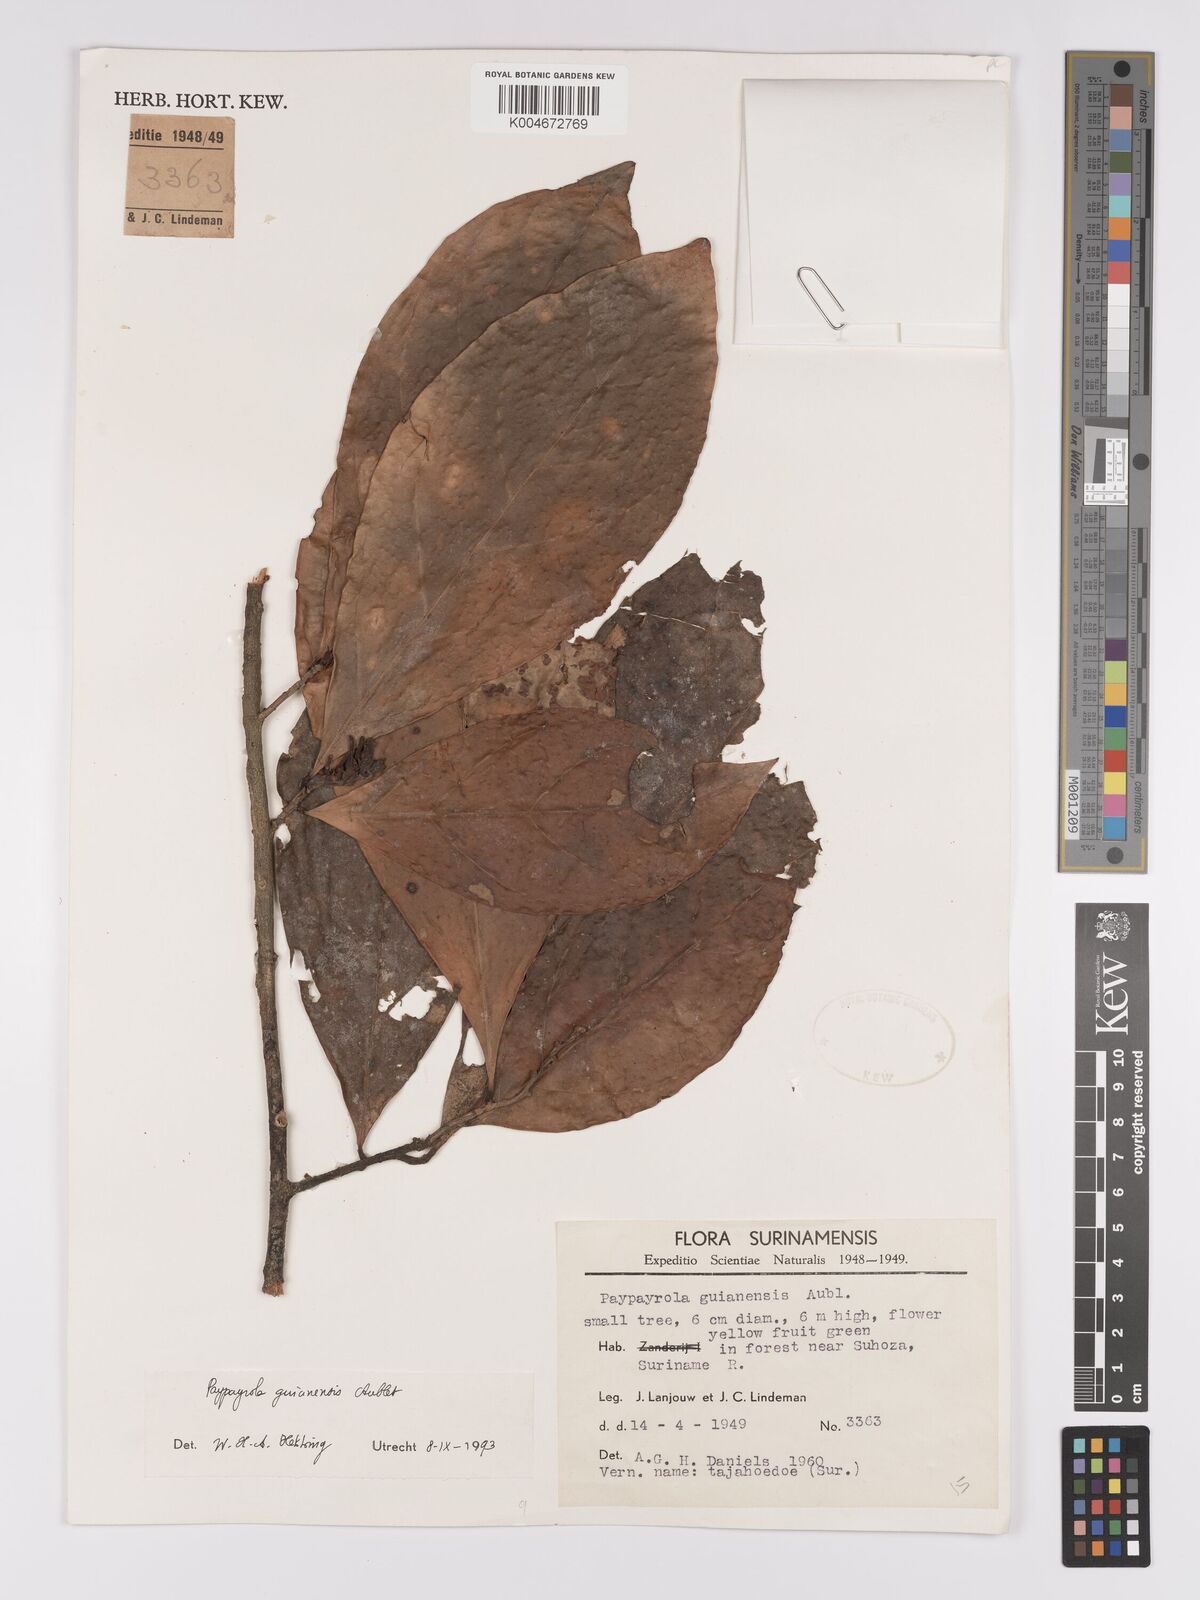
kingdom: Plantae
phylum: Tracheophyta
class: Magnoliopsida
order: Malpighiales
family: Violaceae
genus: Paypayrola
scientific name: Paypayrola guianensis
